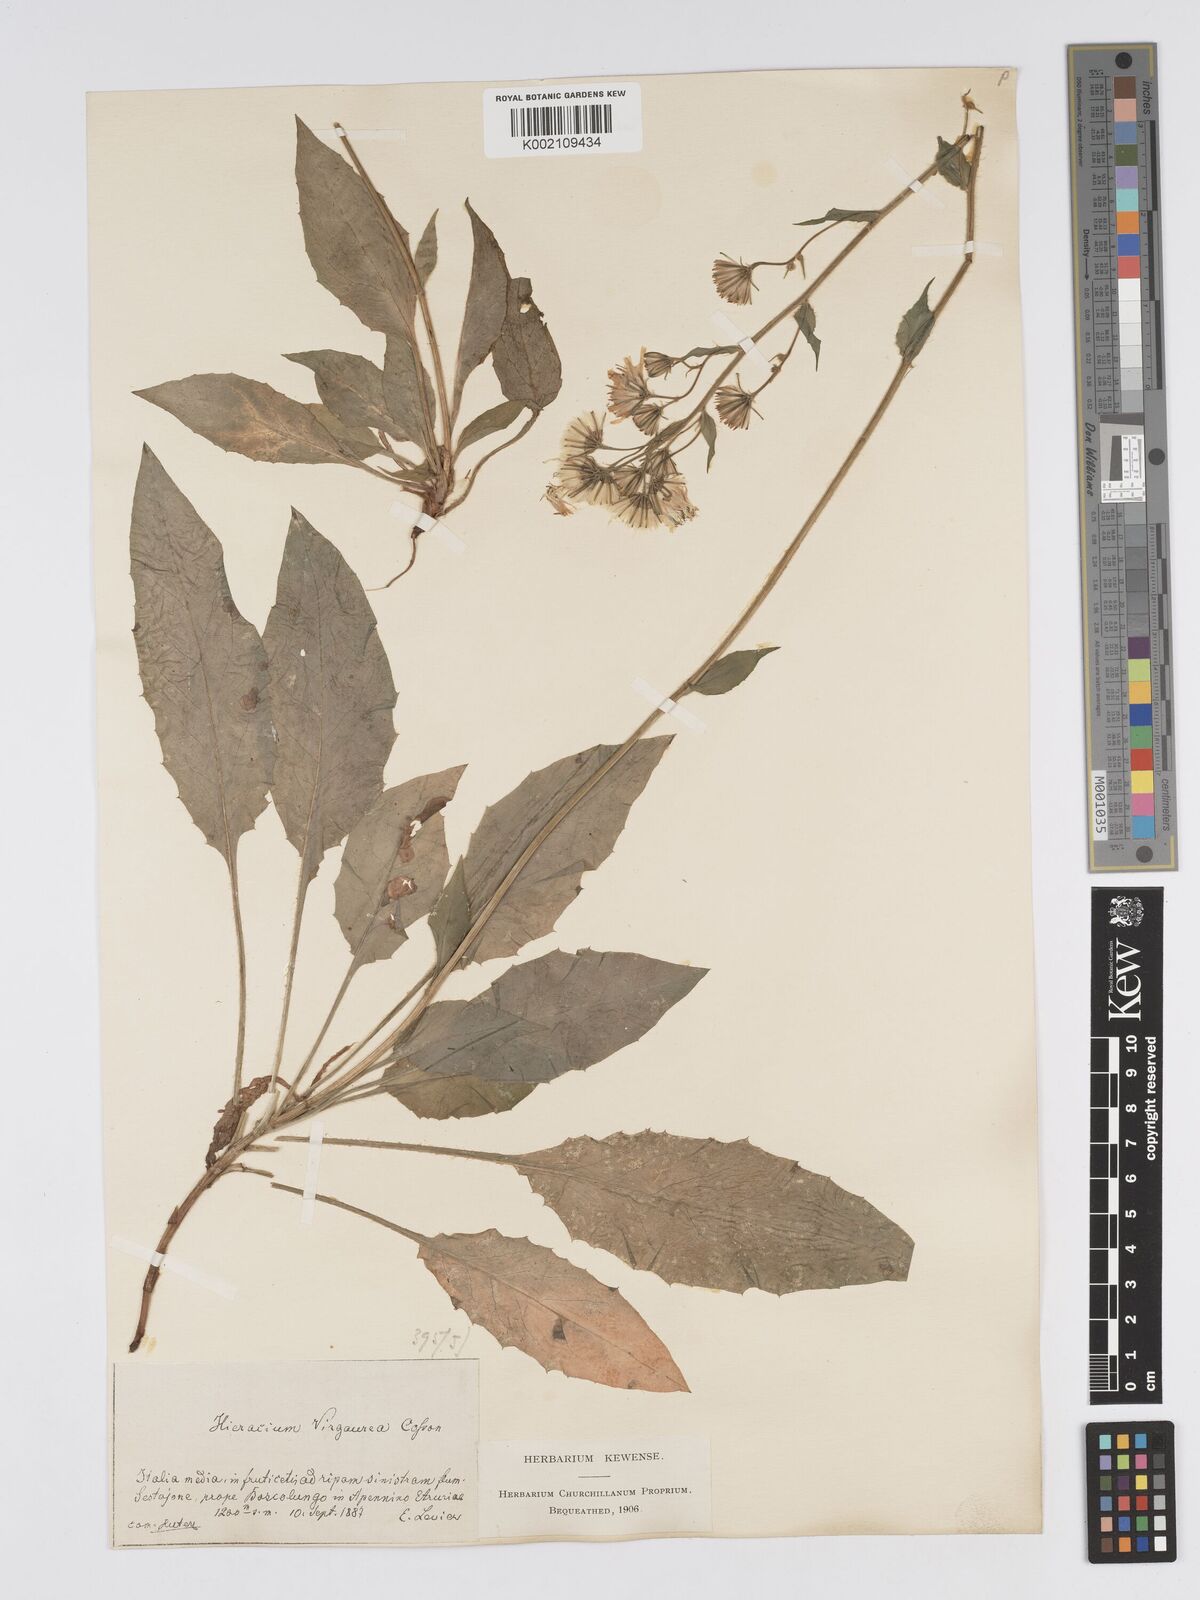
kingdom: Plantae
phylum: Tracheophyta
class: Magnoliopsida
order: Asterales
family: Asteraceae
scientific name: Asteraceae
